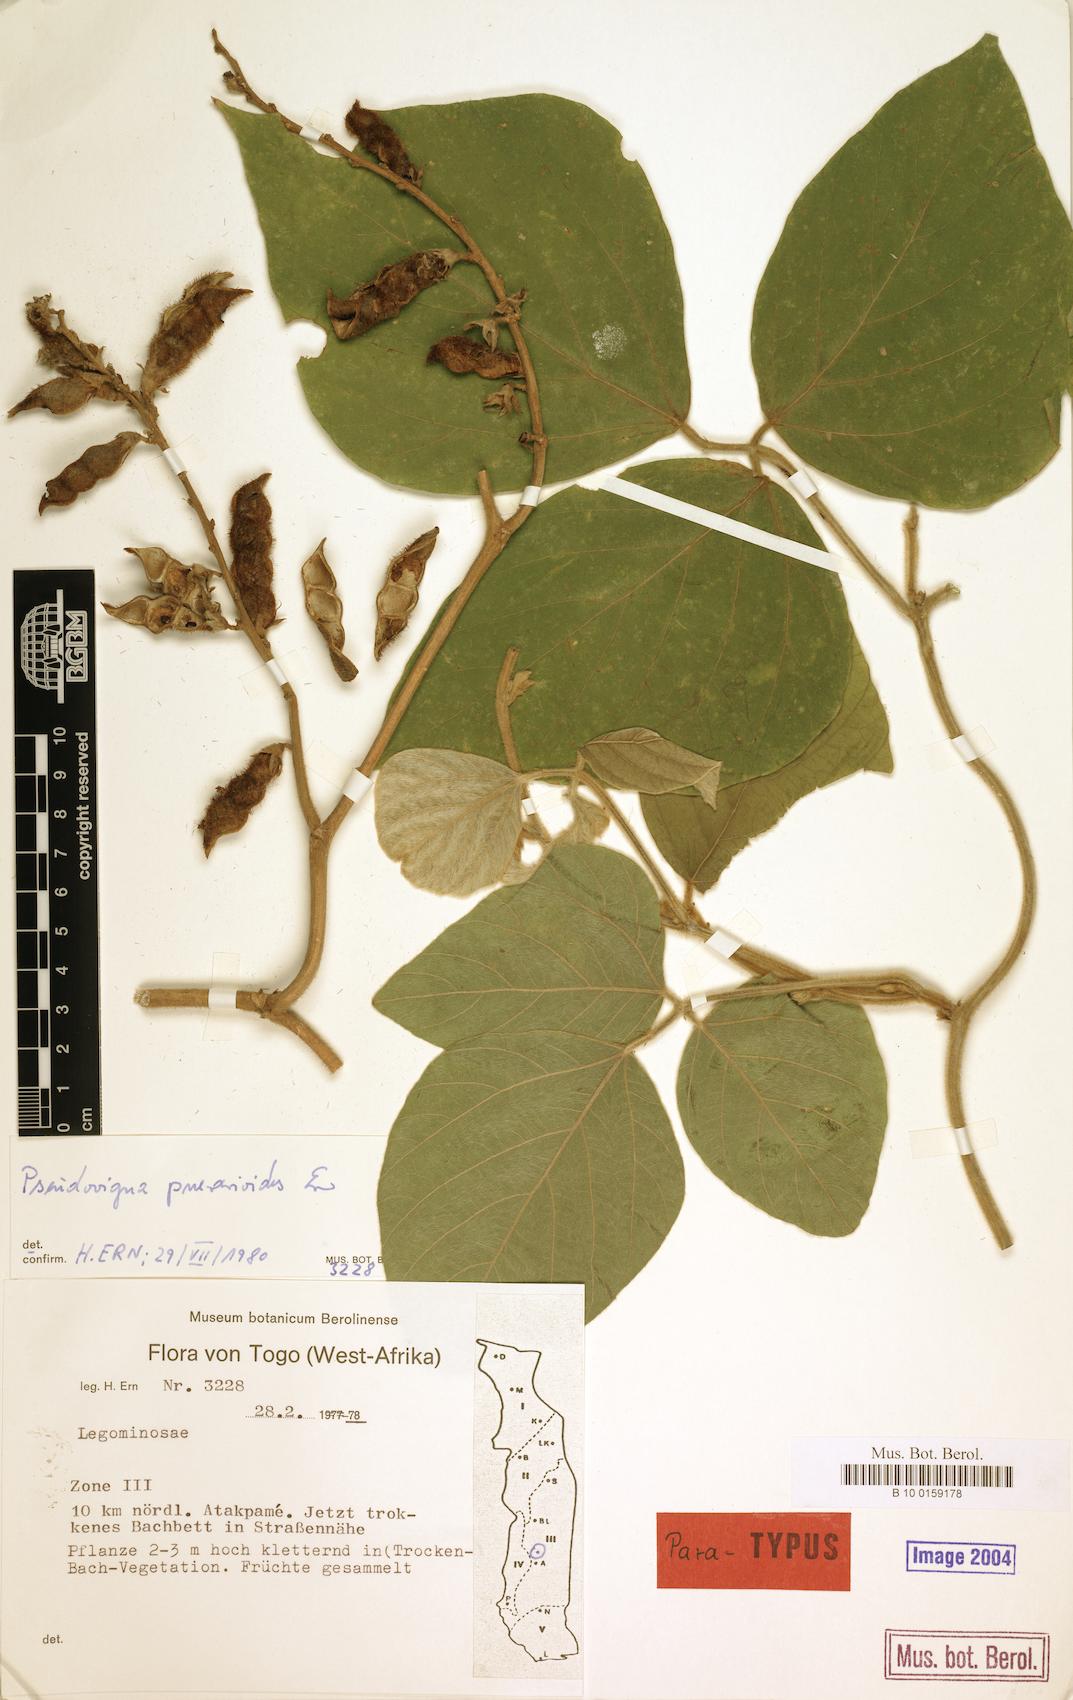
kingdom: Plantae
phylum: Tracheophyta
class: Magnoliopsida
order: Fabales
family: Fabaceae
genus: Pseudovigna
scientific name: Pseudovigna puerarioides
